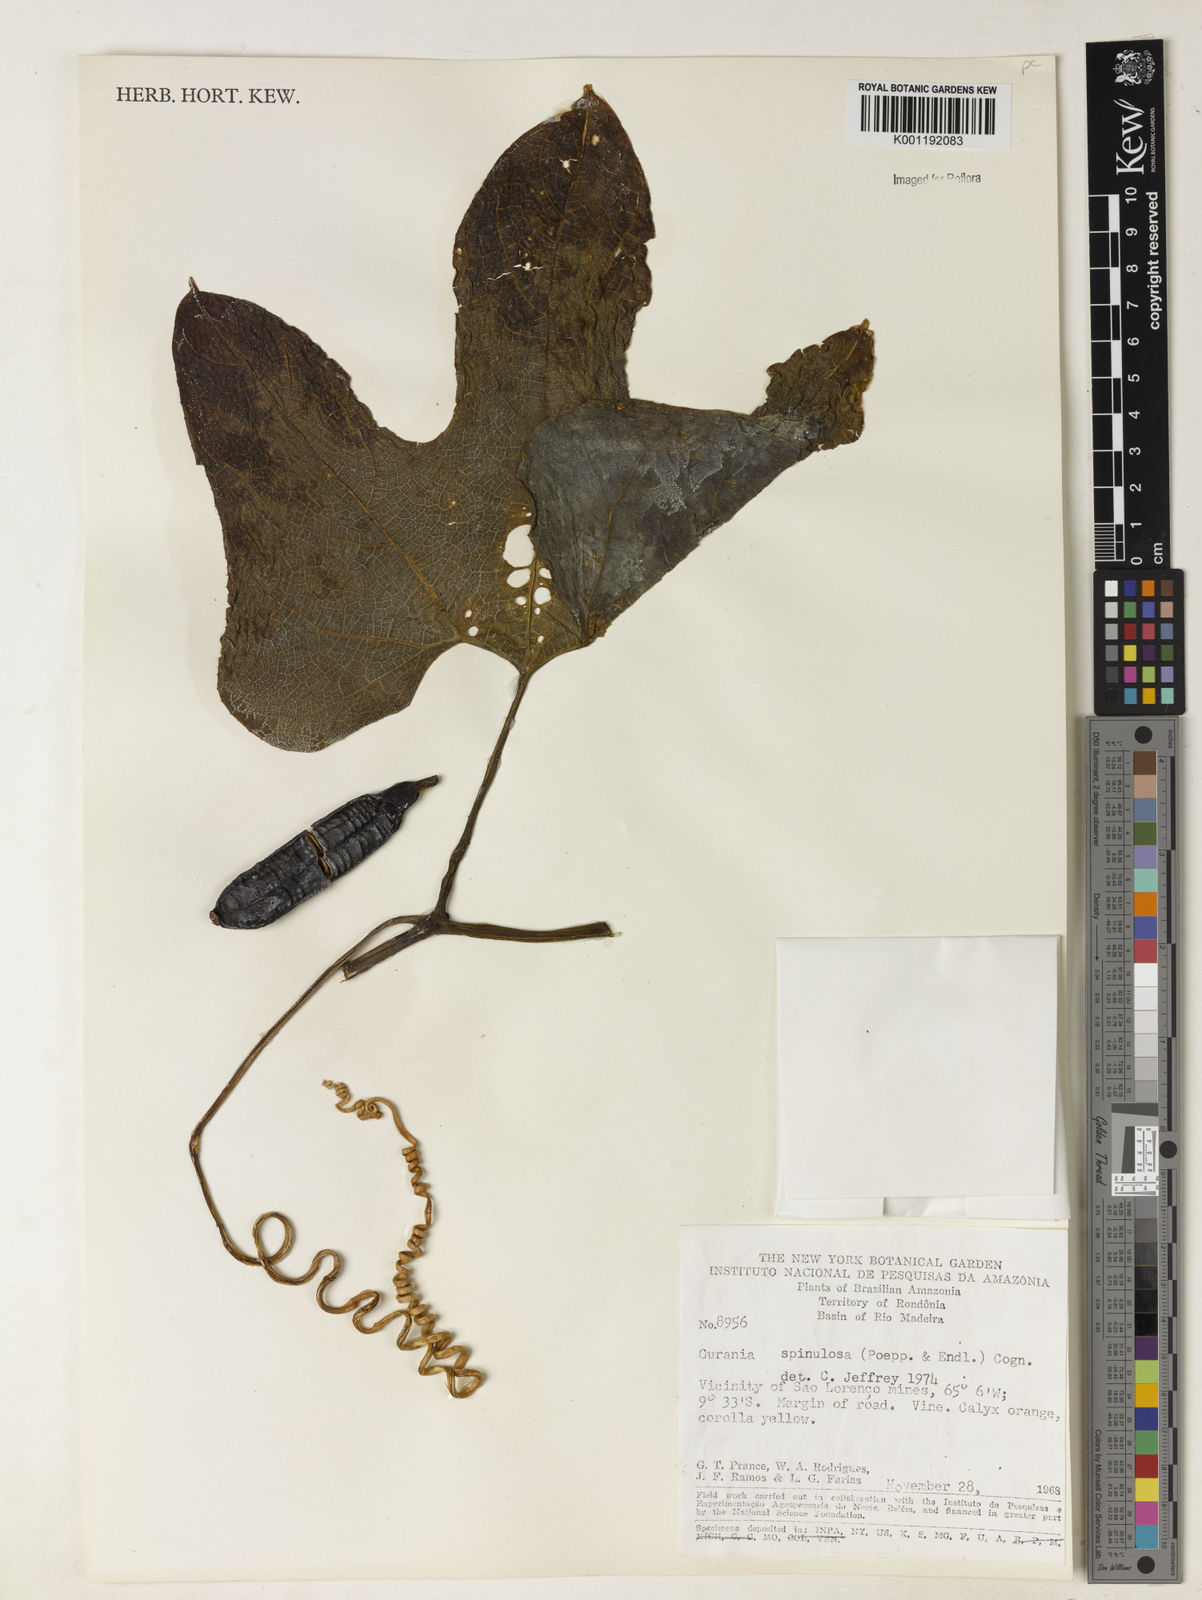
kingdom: Plantae
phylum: Tracheophyta
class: Magnoliopsida
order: Cucurbitales
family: Cucurbitaceae
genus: Gurania
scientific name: Gurania lobata
